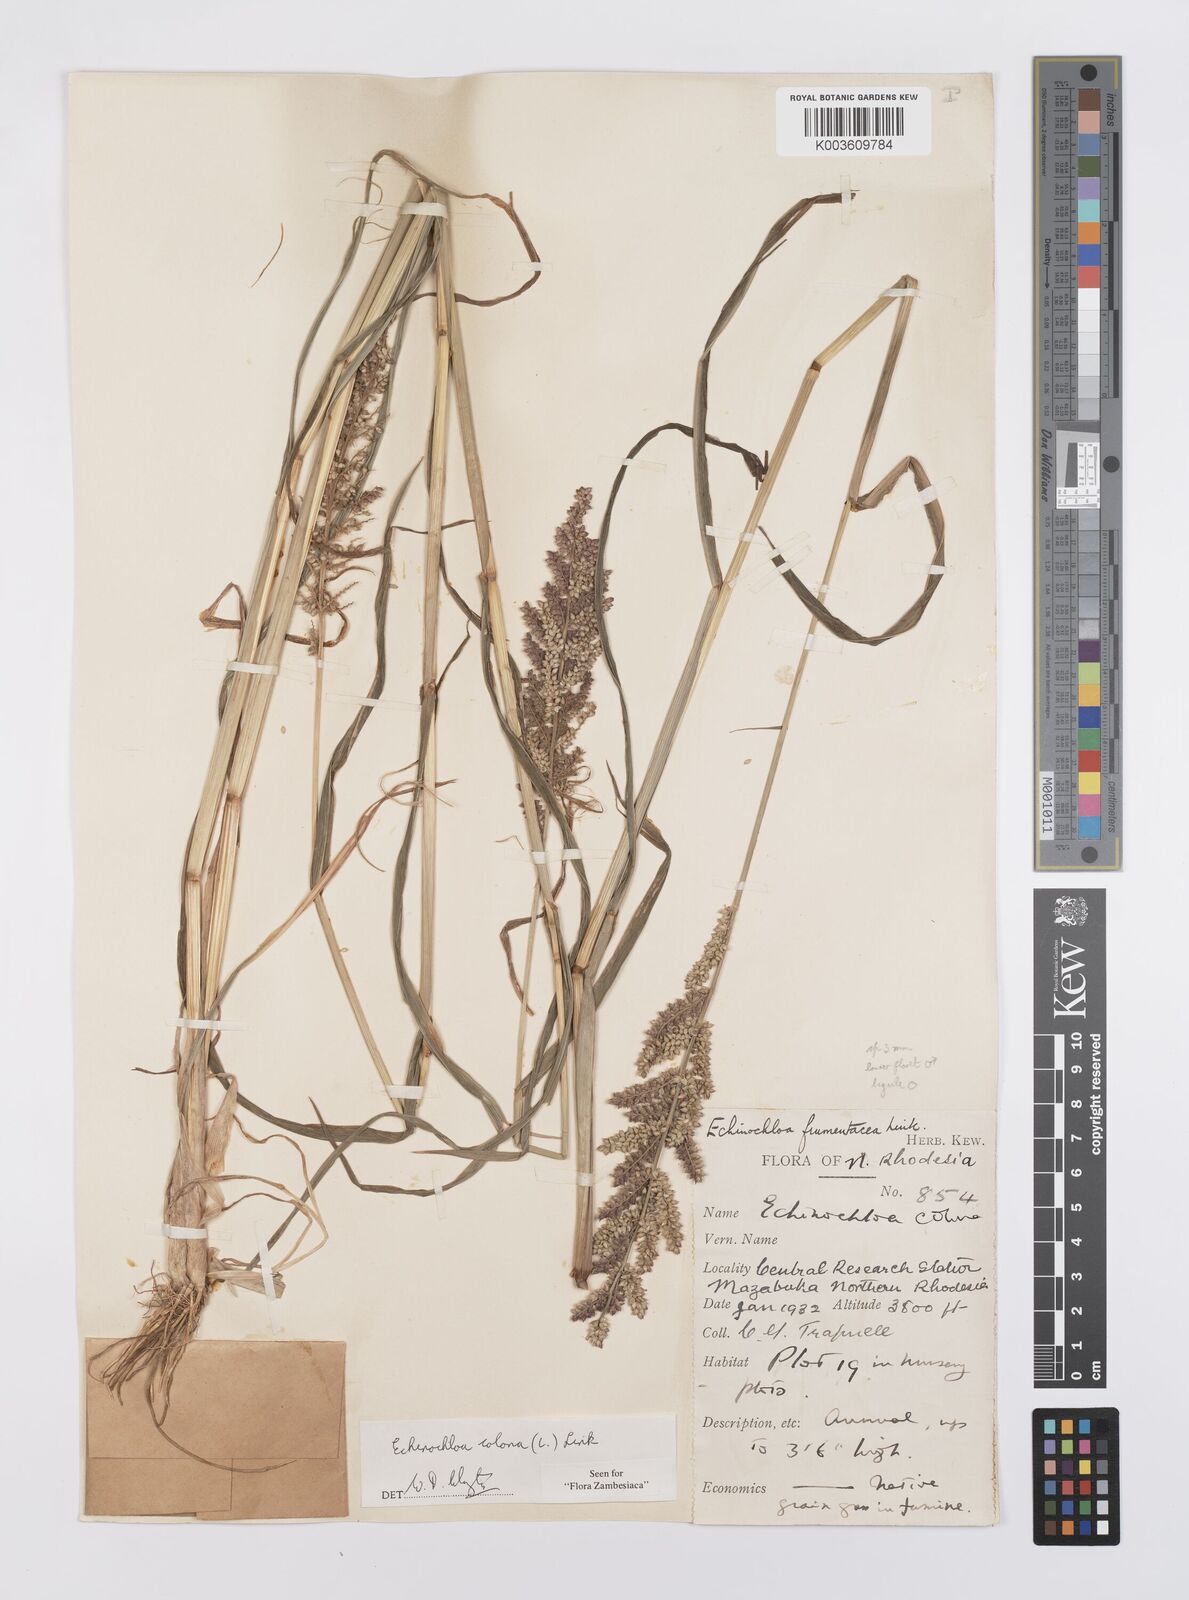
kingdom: Plantae
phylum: Tracheophyta
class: Liliopsida
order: Poales
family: Poaceae
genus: Echinochloa
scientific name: Echinochloa colonum
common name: Jungle rice
